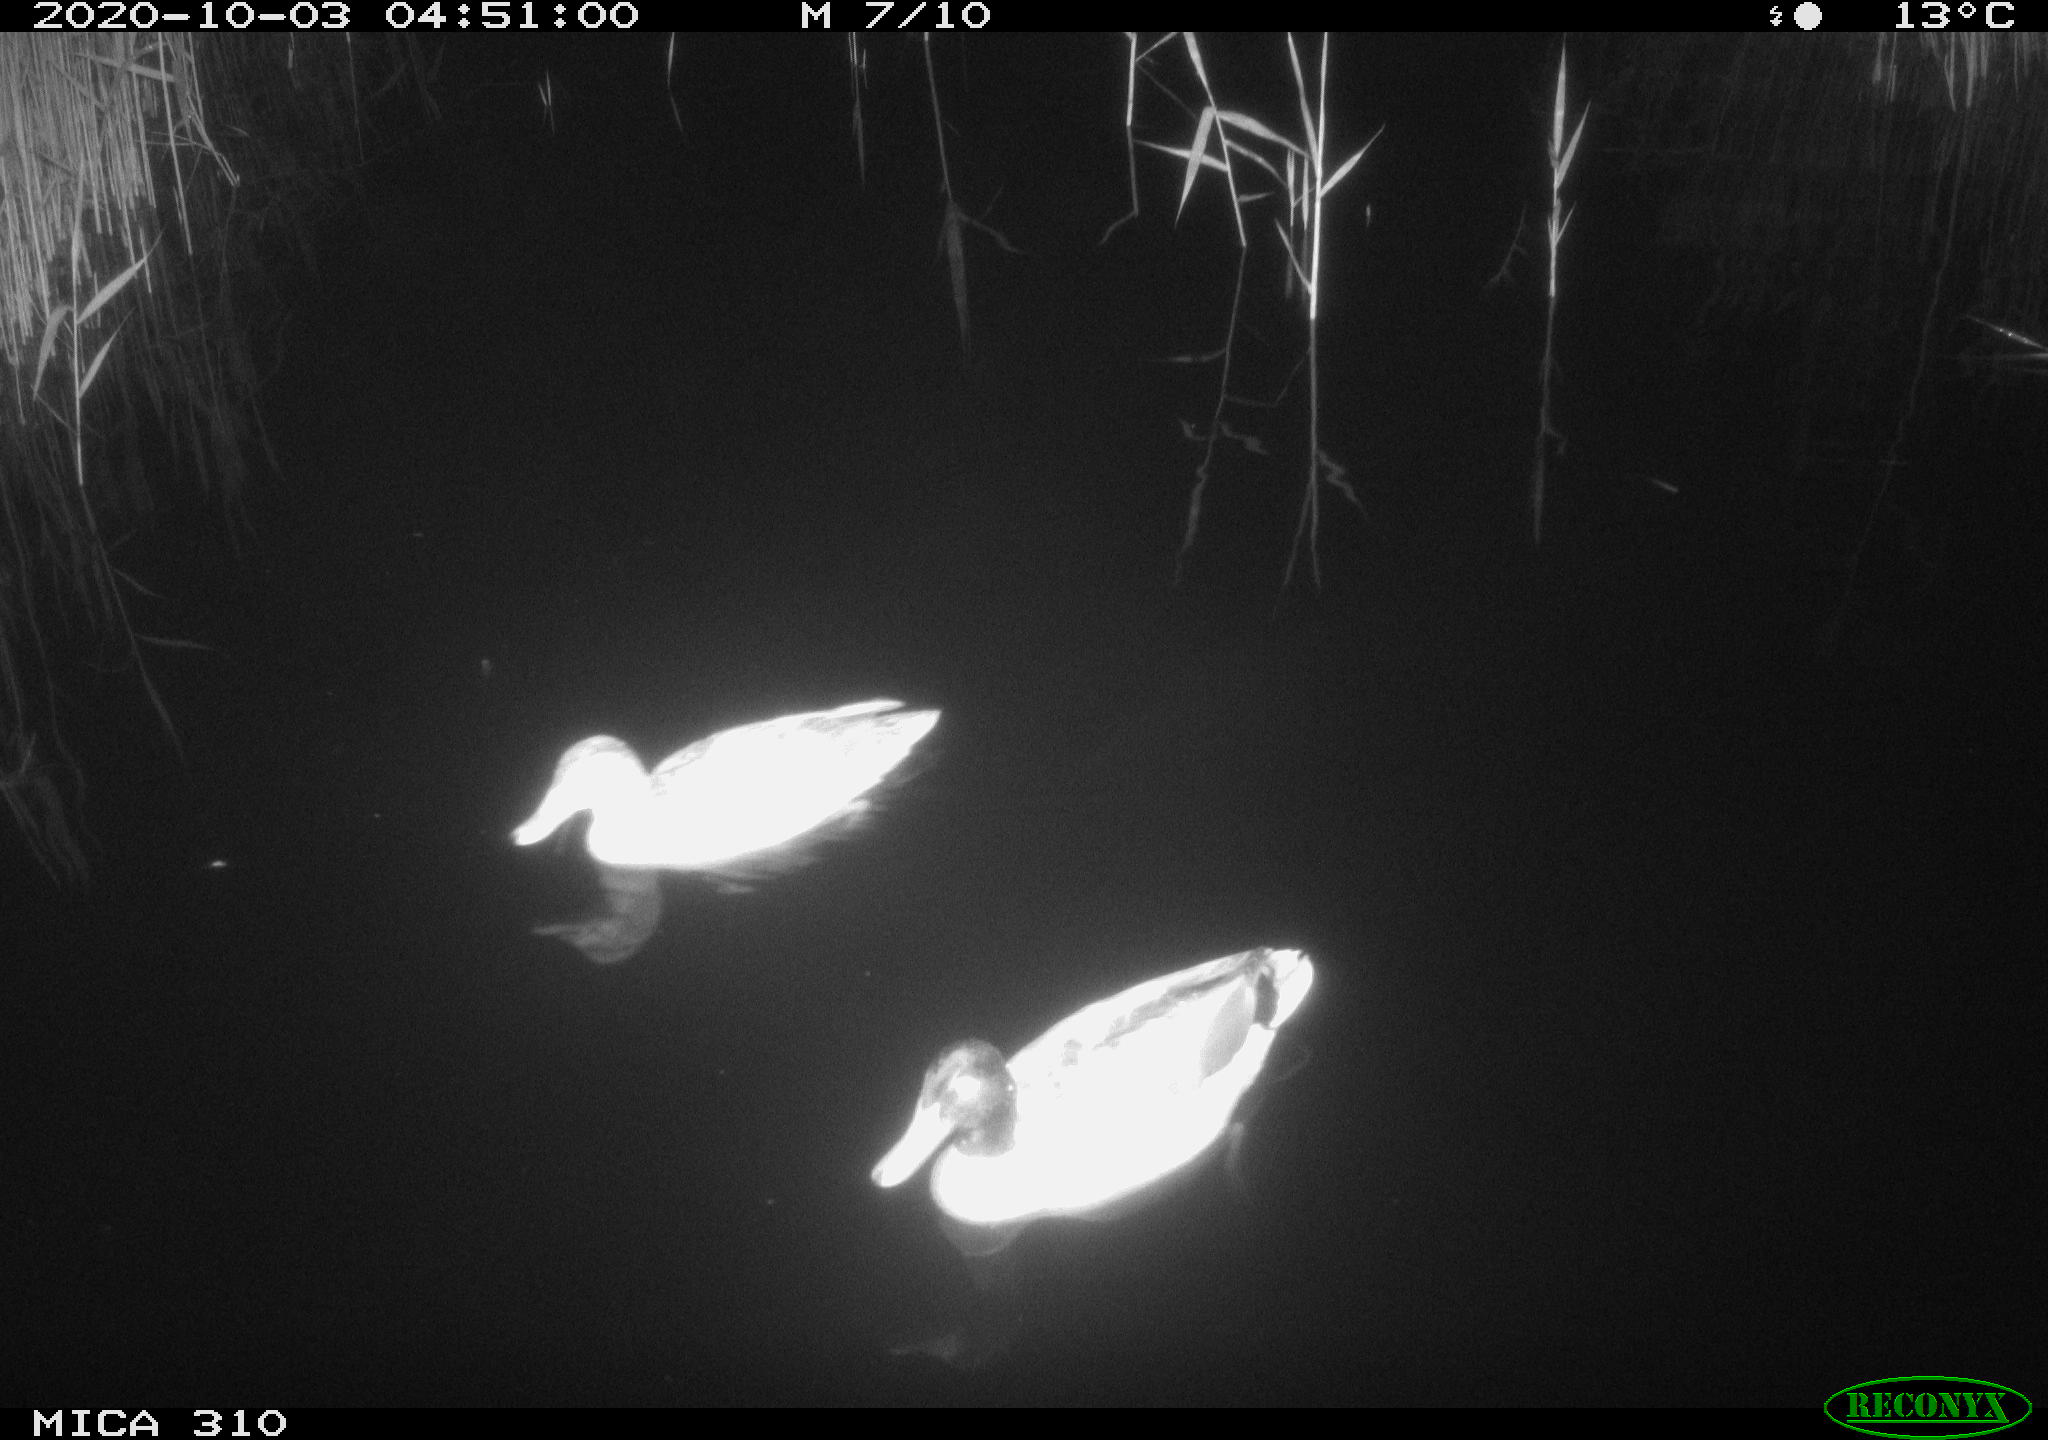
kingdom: Animalia
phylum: Chordata
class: Aves
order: Anseriformes
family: Anatidae
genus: Anas
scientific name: Anas platyrhynchos
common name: Mallard
